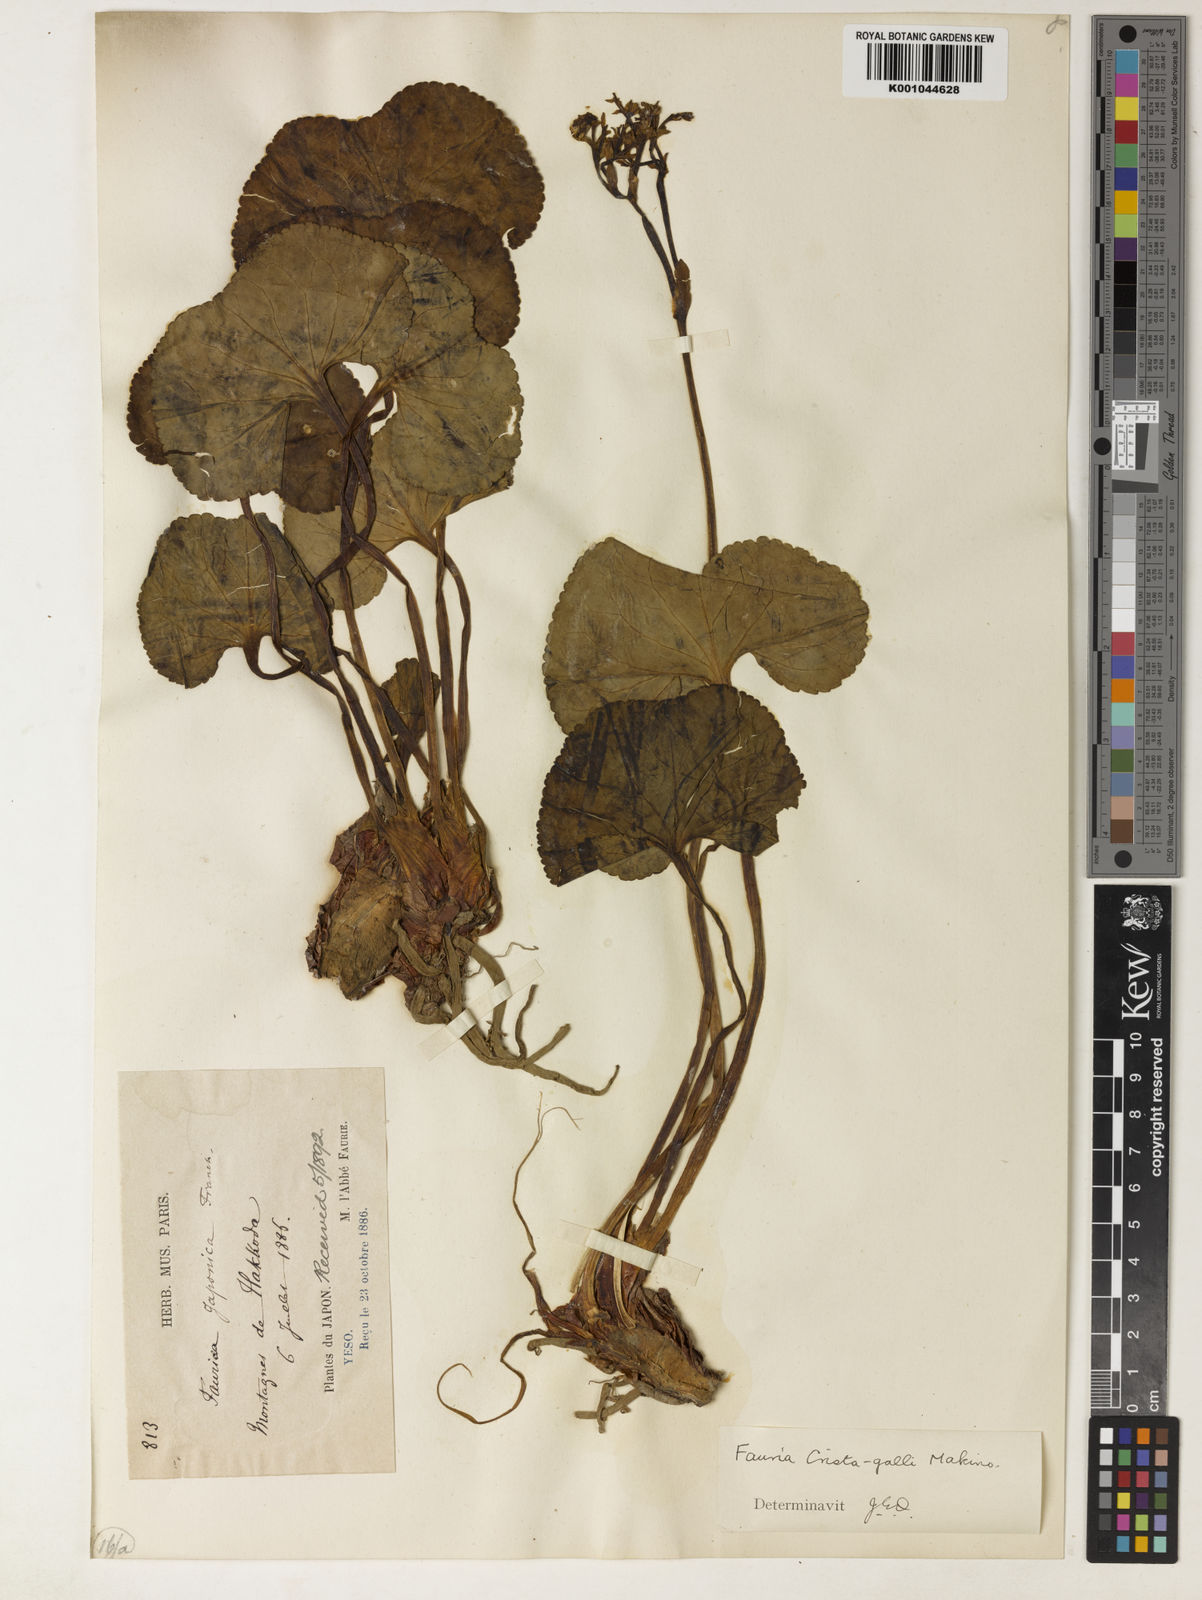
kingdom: Plantae
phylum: Tracheophyta
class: Magnoliopsida
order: Asterales
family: Menyanthaceae
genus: Nephrophyllidium
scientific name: Nephrophyllidium crista-galli
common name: Deer-cabbage
